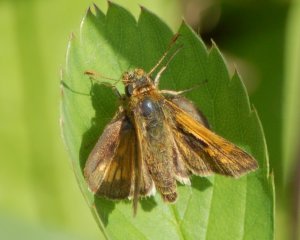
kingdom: Animalia
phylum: Arthropoda
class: Insecta
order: Lepidoptera
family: Hesperiidae
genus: Polites
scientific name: Polites coras
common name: Peck's Skipper
